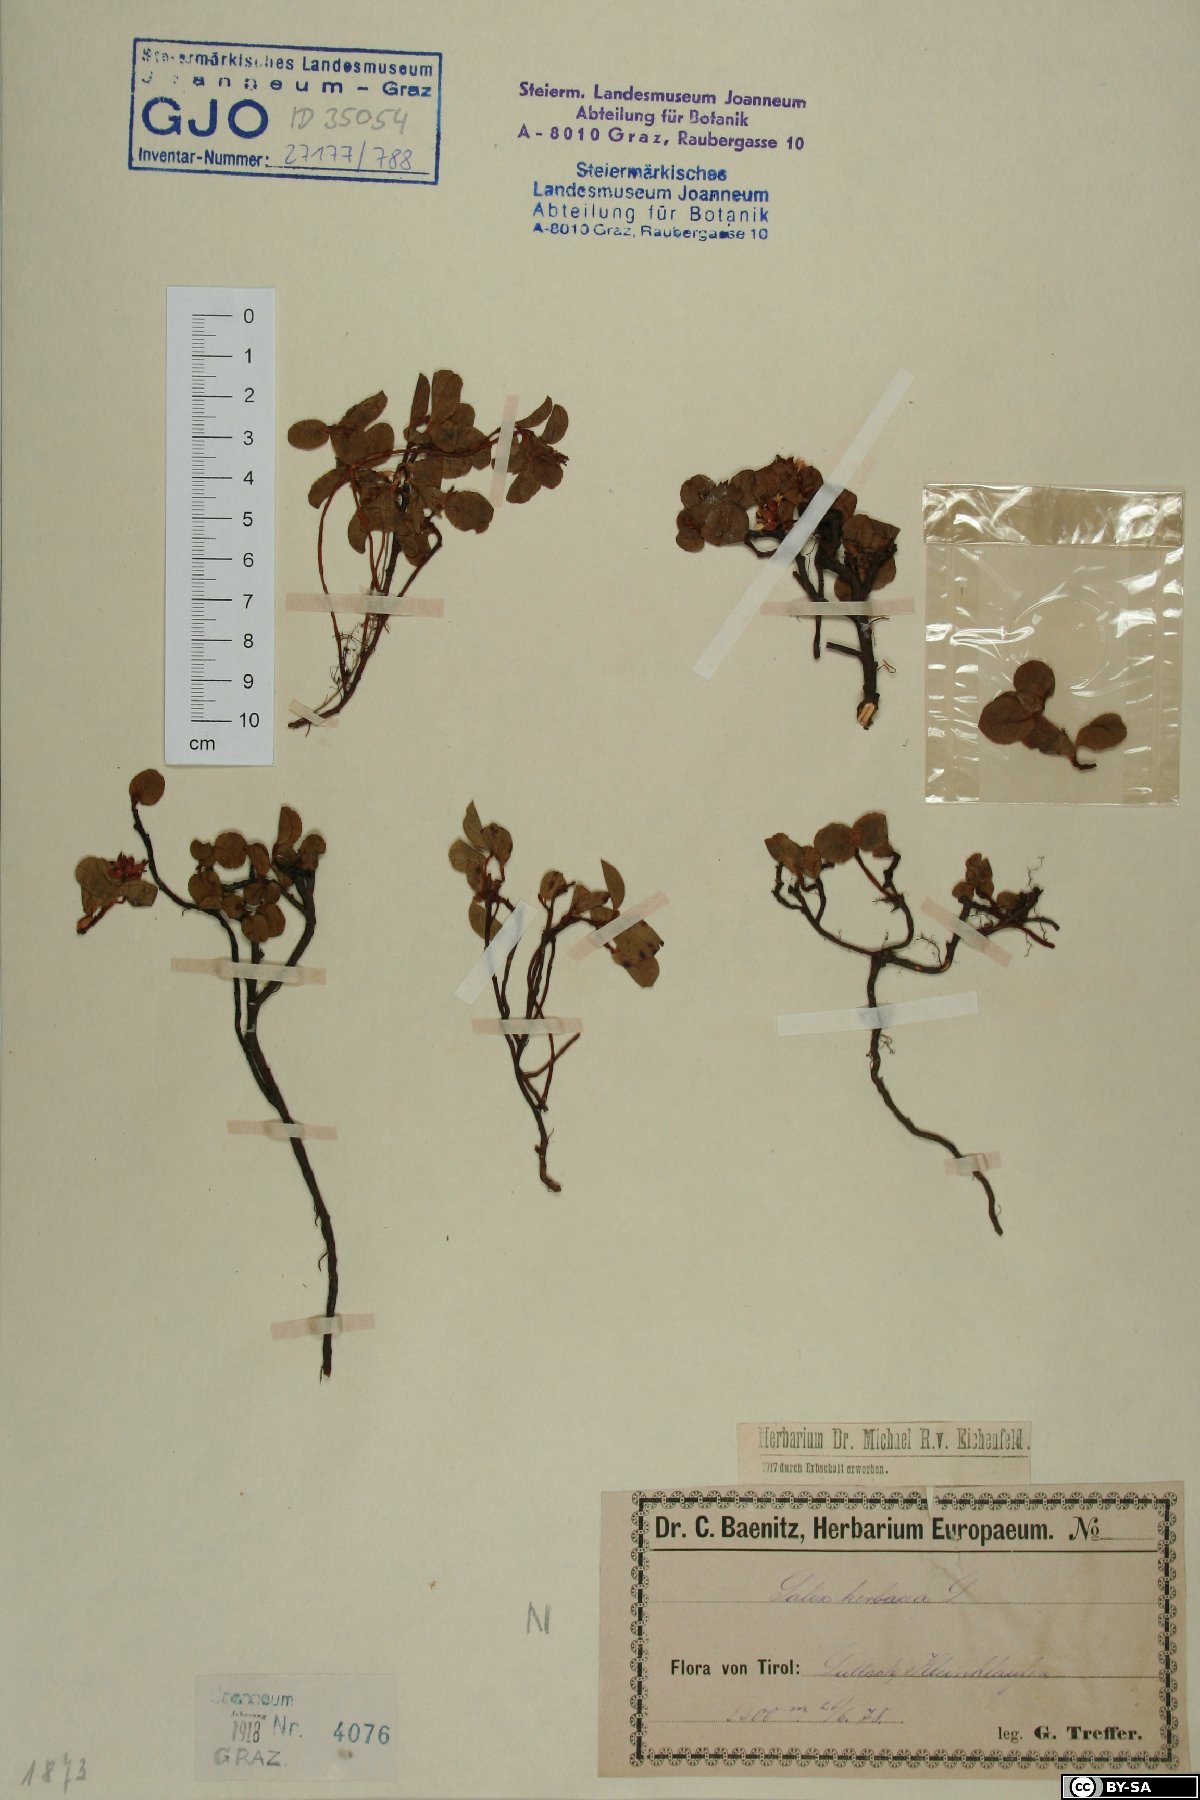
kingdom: Plantae
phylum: Tracheophyta
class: Magnoliopsida
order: Malpighiales
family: Salicaceae
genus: Salix
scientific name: Salix herbacea
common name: Dwarf willow
